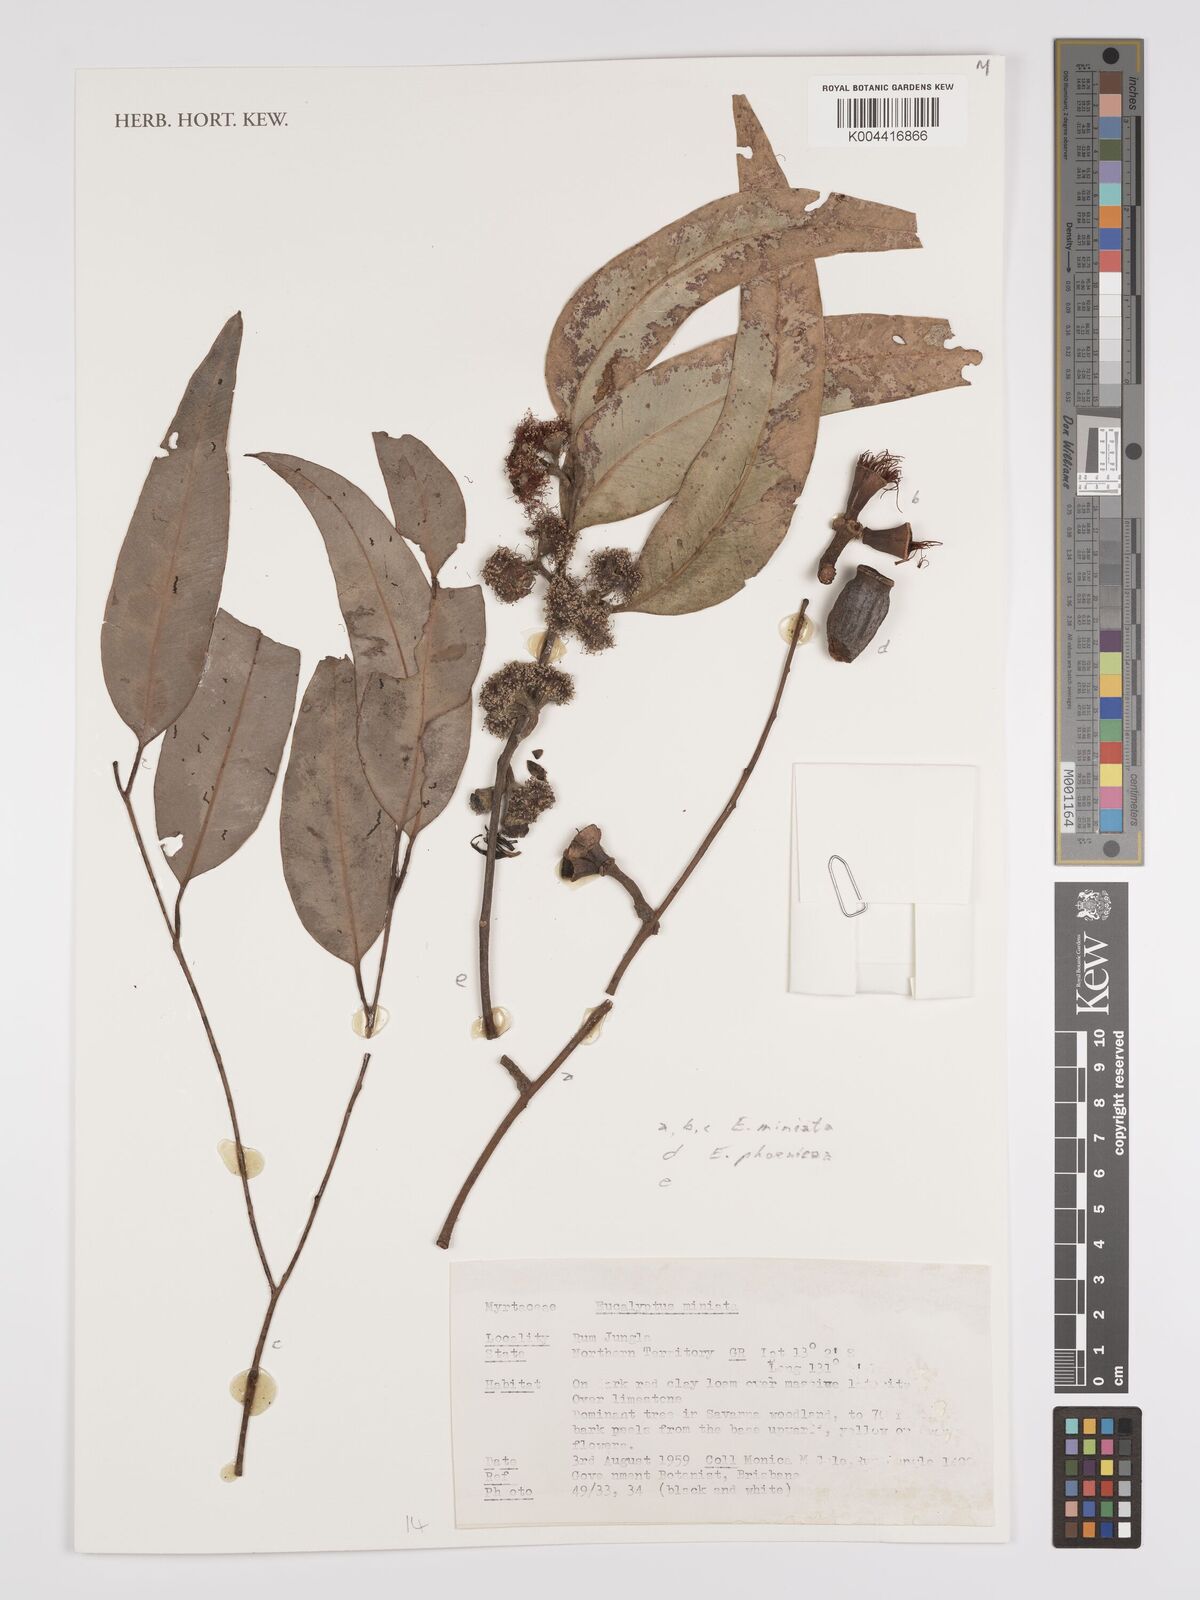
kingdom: Plantae
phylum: Tracheophyta
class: Magnoliopsida
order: Myrtales
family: Myrtaceae
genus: Eucalyptus
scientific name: Eucalyptus miniata
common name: Darwin-woollybutt
